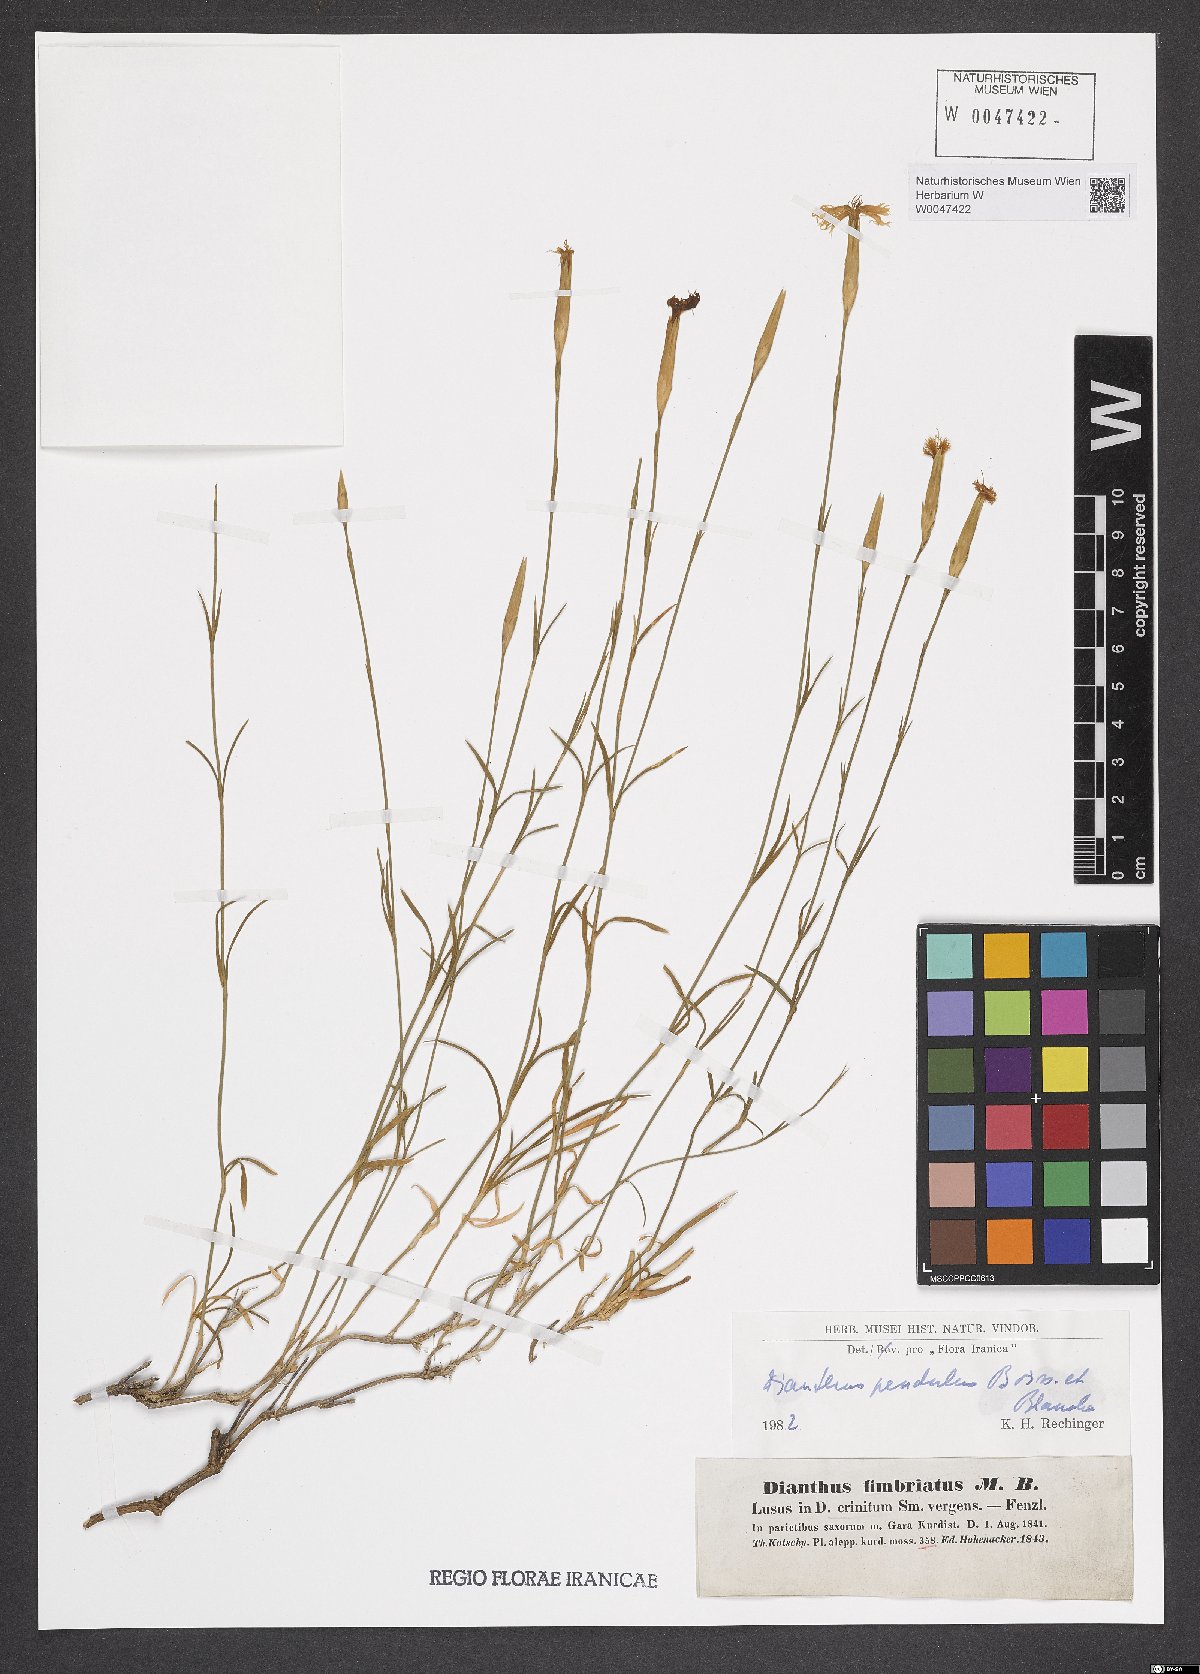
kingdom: Plantae
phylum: Tracheophyta
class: Magnoliopsida
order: Caryophyllales
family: Caryophyllaceae
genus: Dianthus
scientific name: Dianthus pendulus
